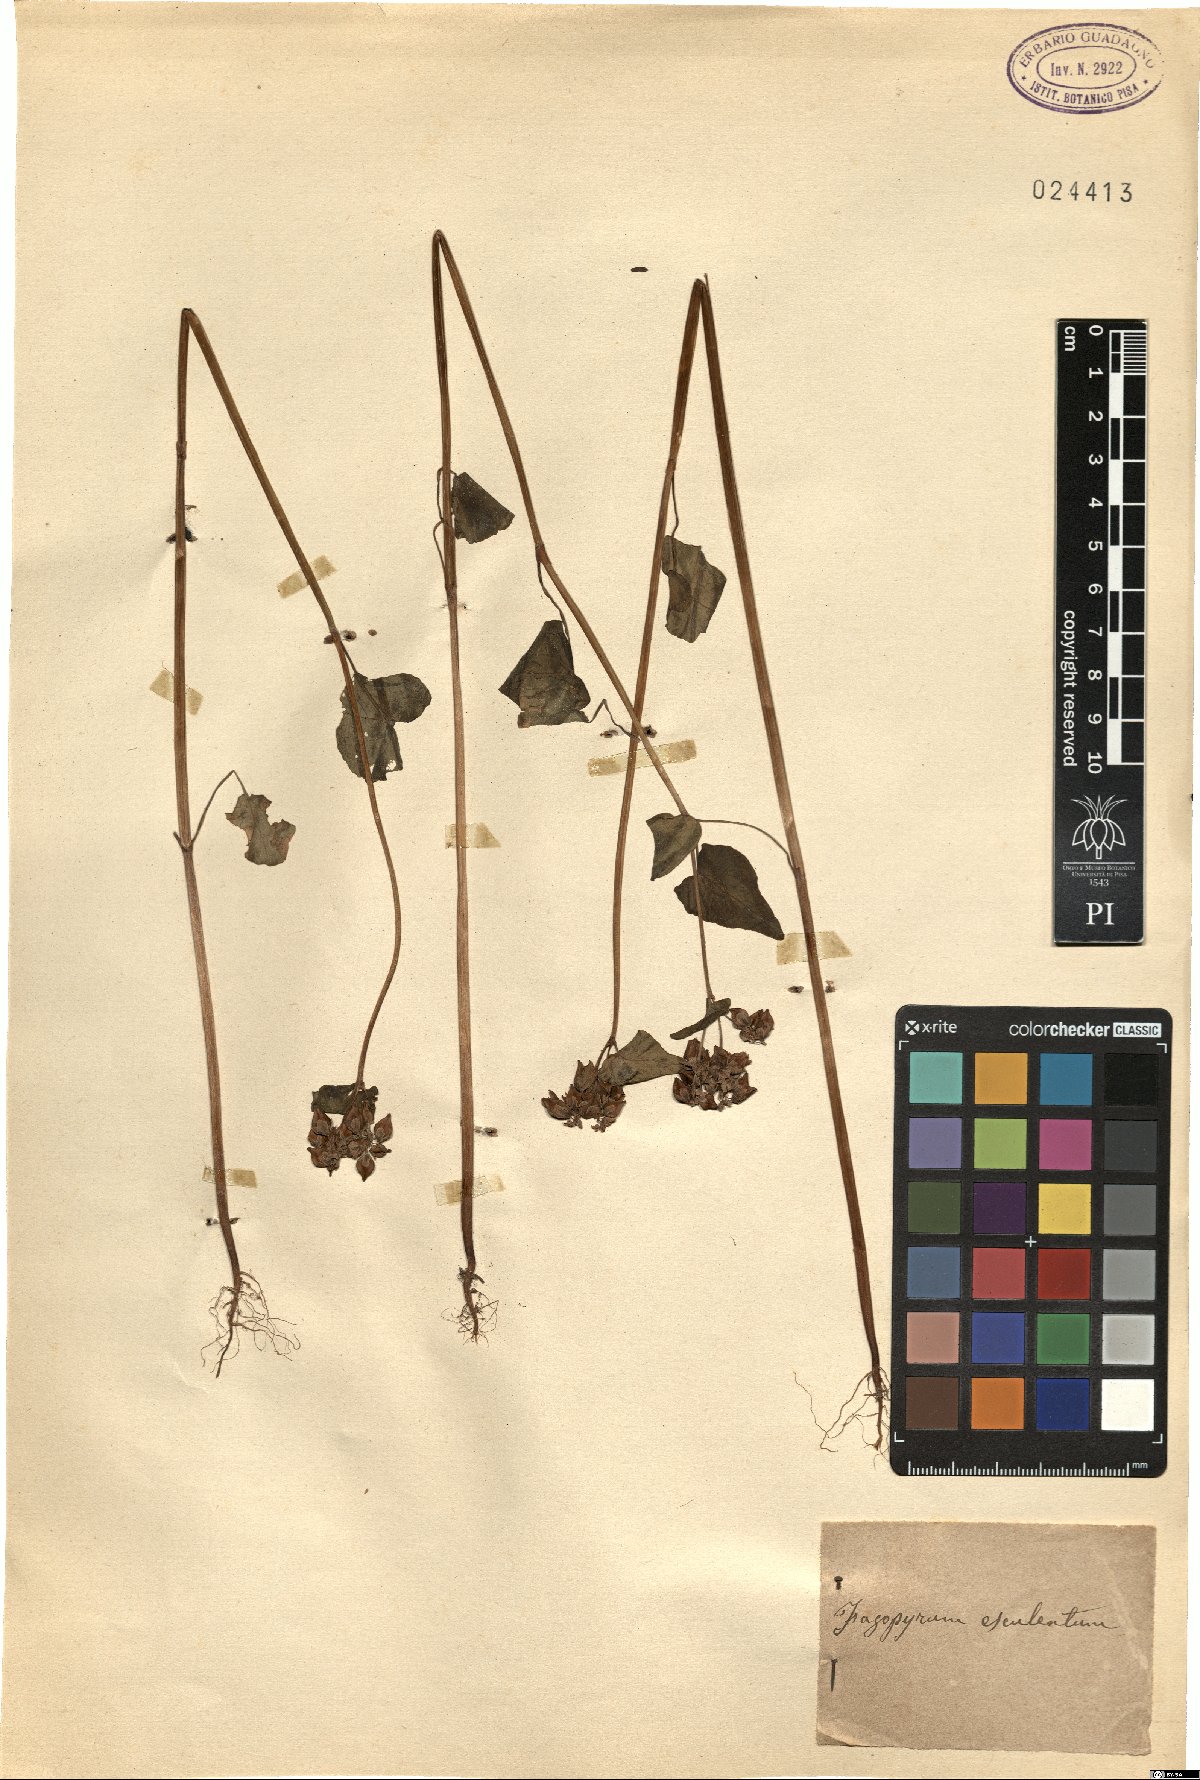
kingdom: Plantae
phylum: Tracheophyta
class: Magnoliopsida
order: Caryophyllales
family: Polygonaceae
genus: Fagopyrum
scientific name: Fagopyrum esculentum
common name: Buckwheat
